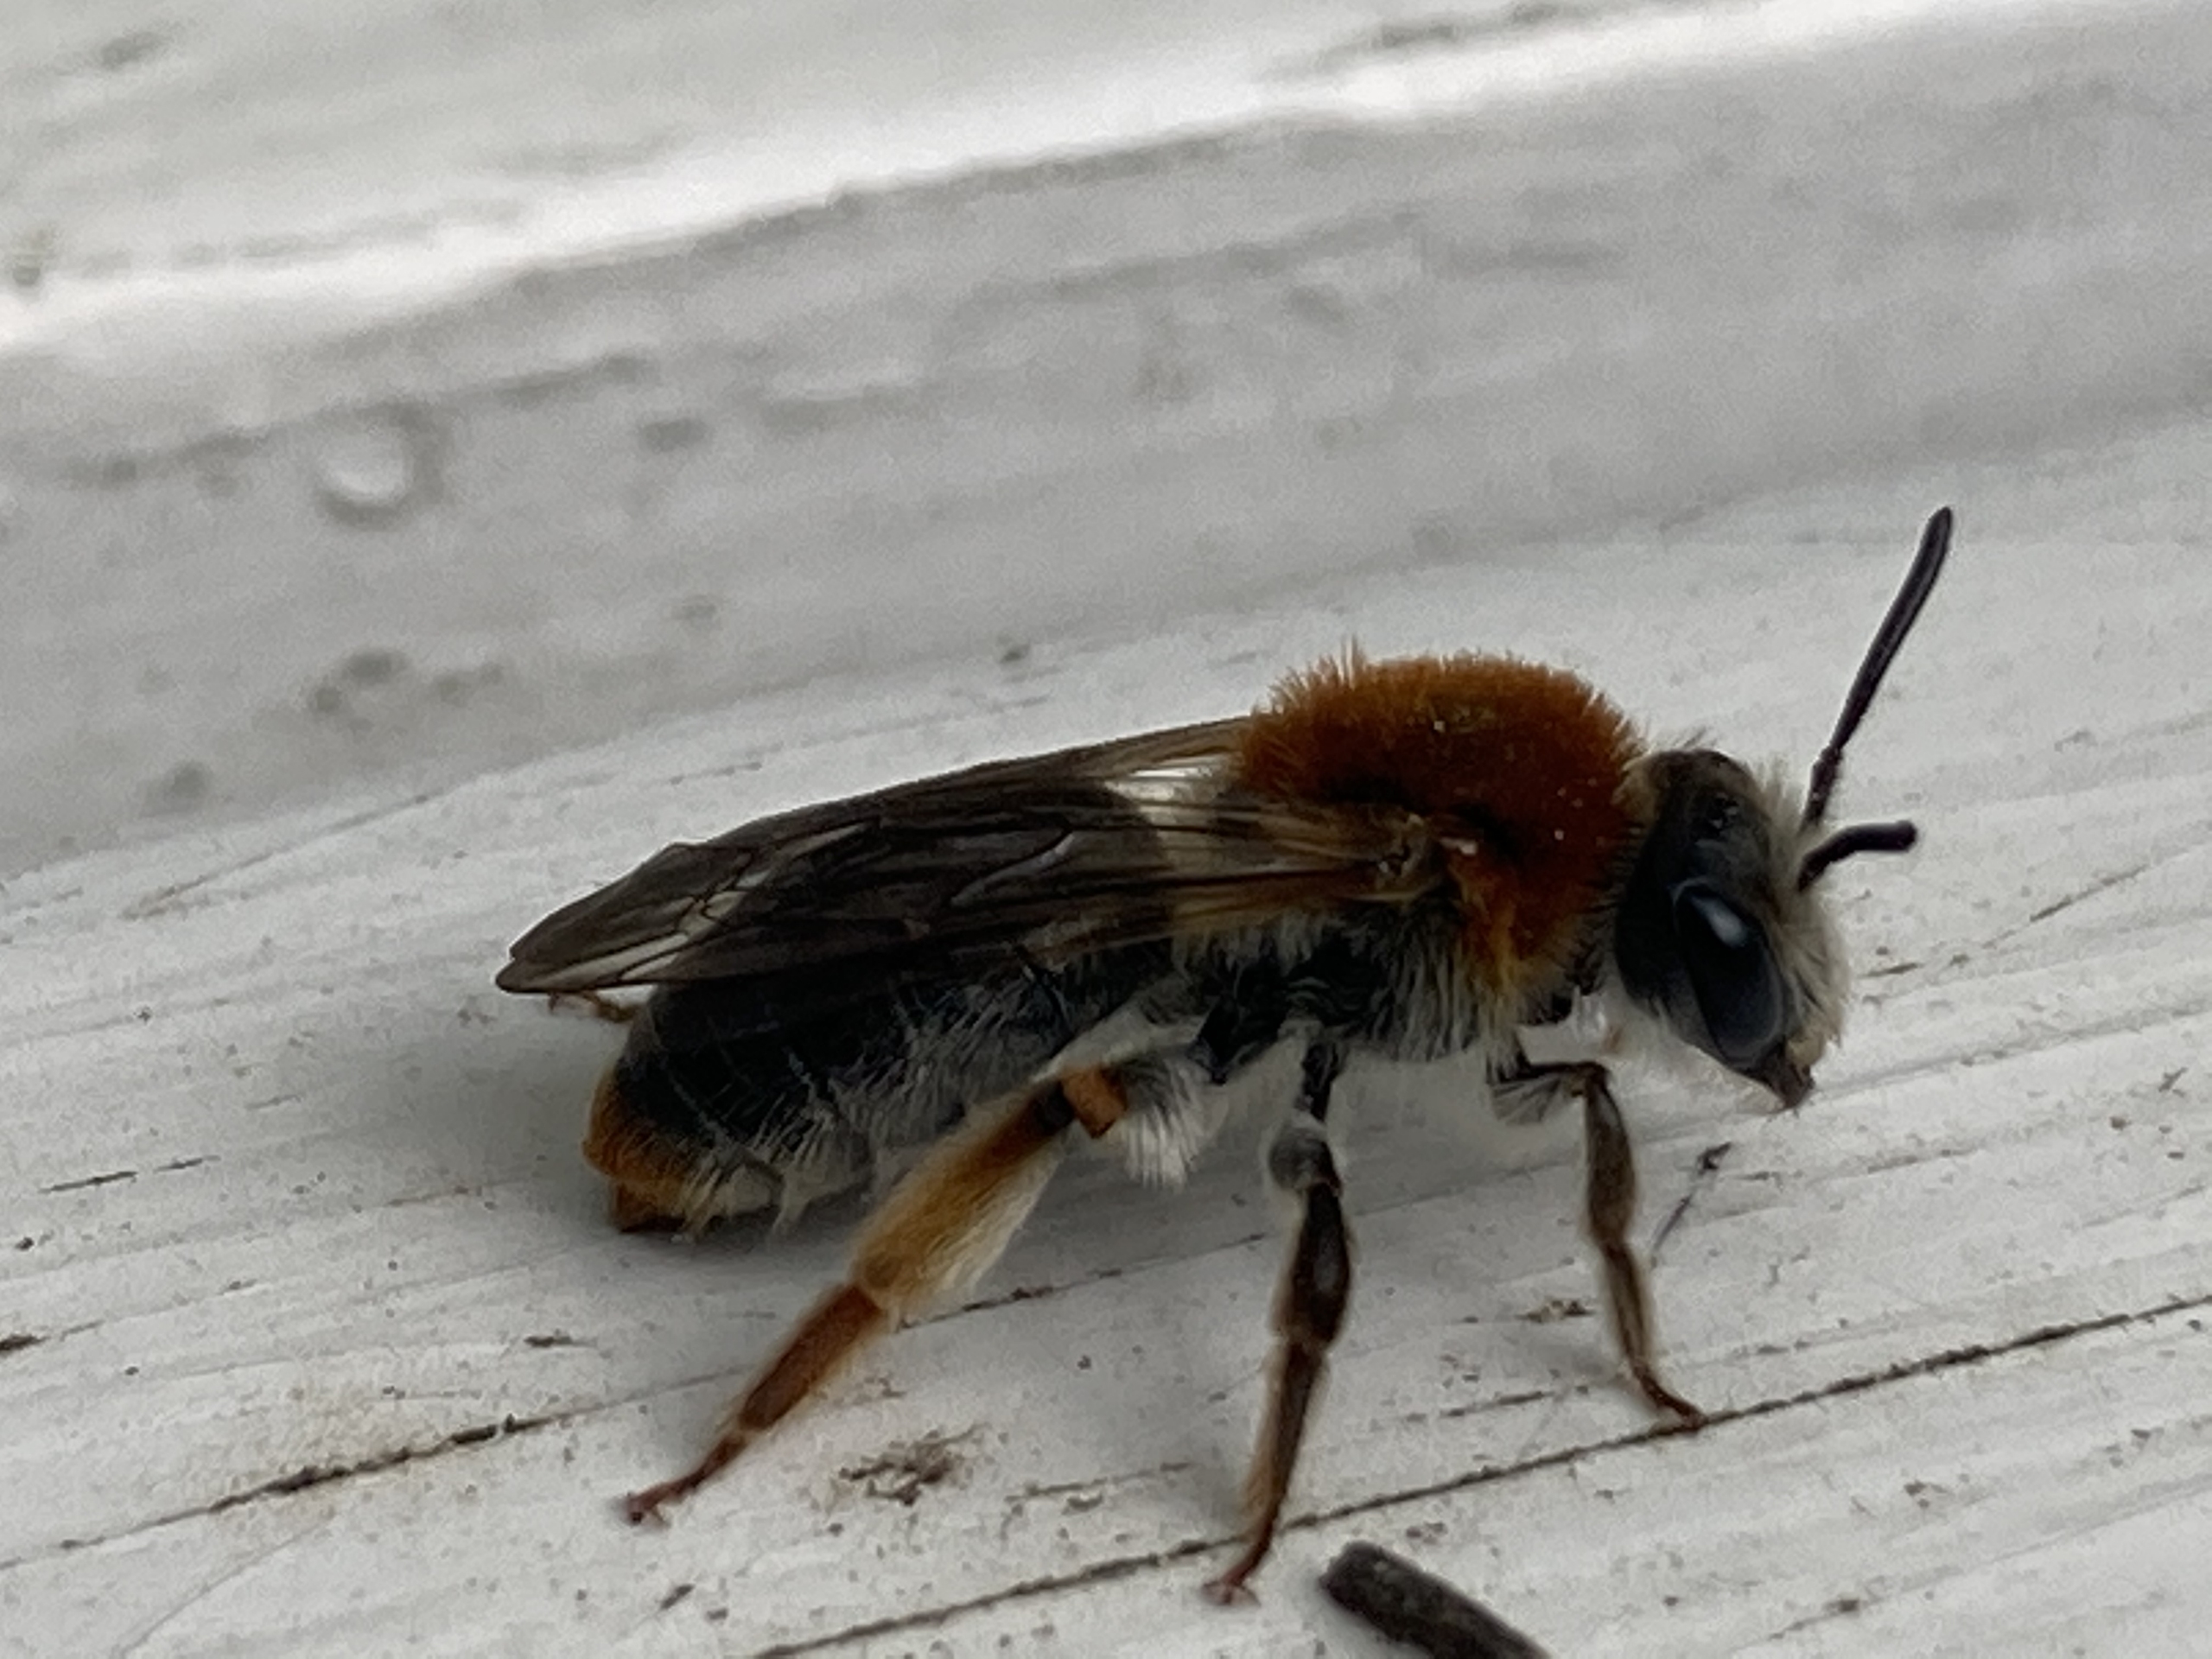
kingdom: Animalia
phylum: Arthropoda
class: Insecta
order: Hymenoptera
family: Andrenidae
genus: Andrena
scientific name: Andrena haemorrhoa
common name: Havejordbi
